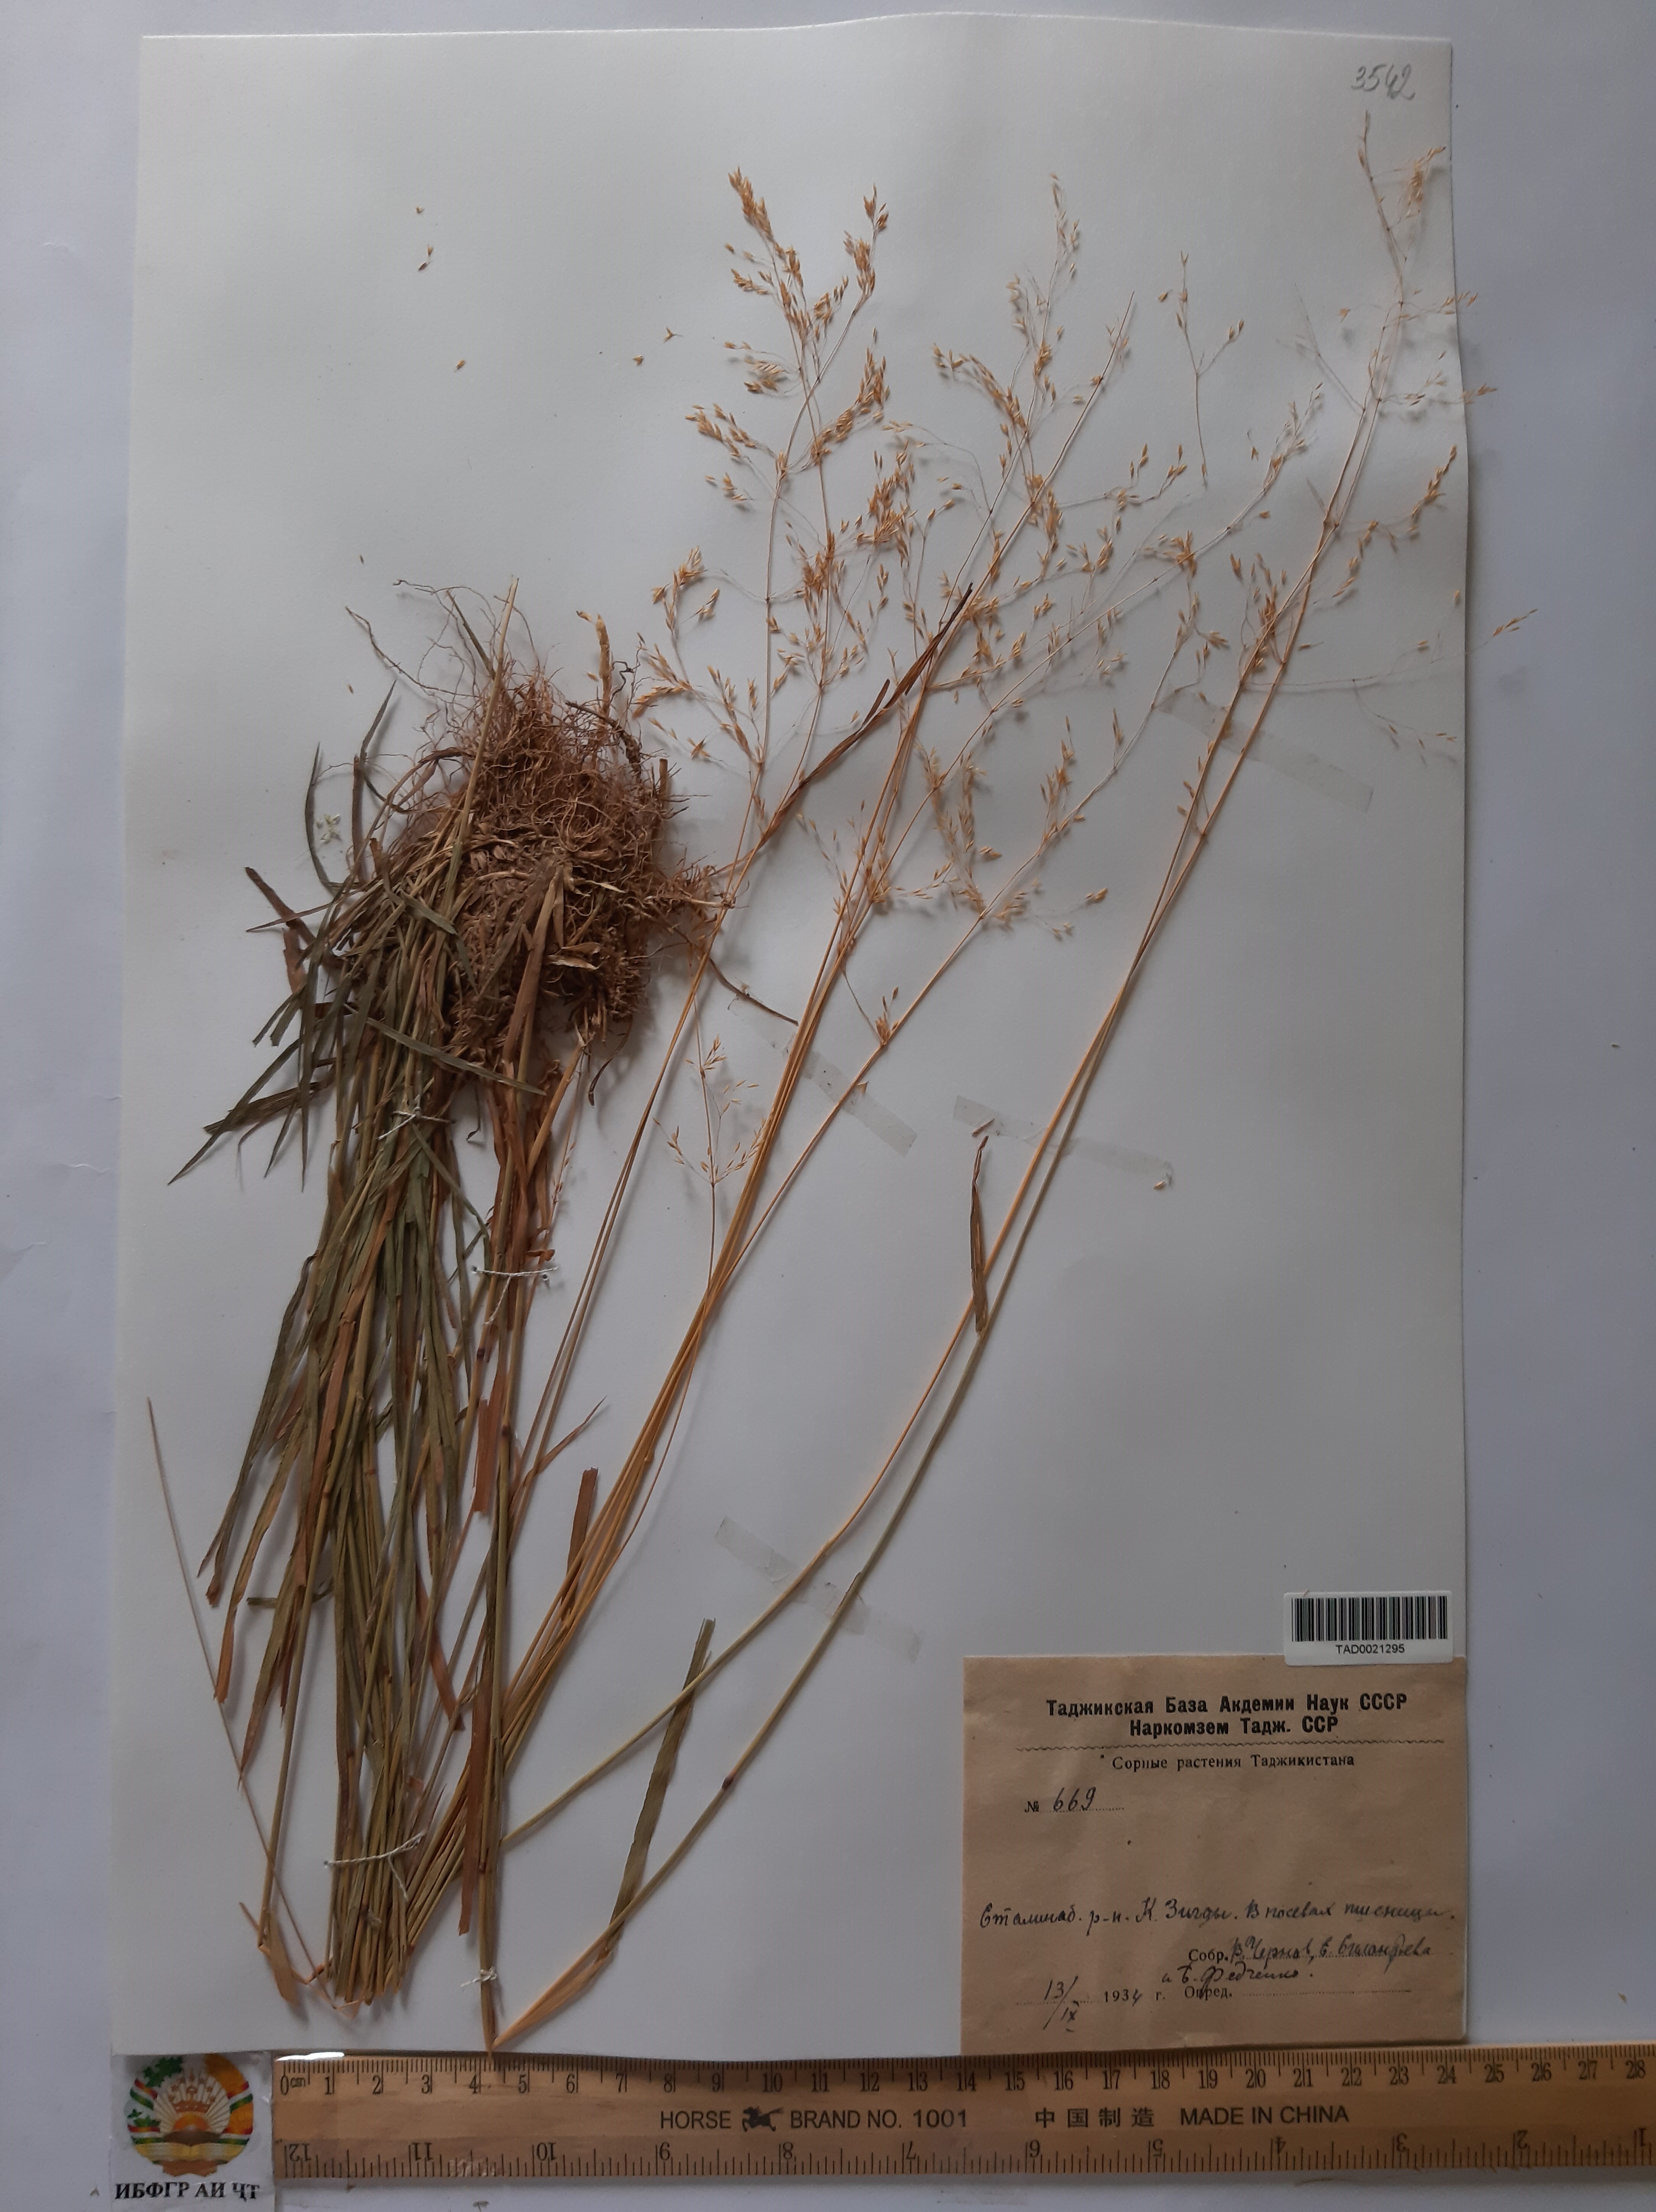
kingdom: Plantae
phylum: Tracheophyta
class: Liliopsida
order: Poales
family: Poaceae
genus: Poa
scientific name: Poa nemoralis
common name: Wood bluegrass
